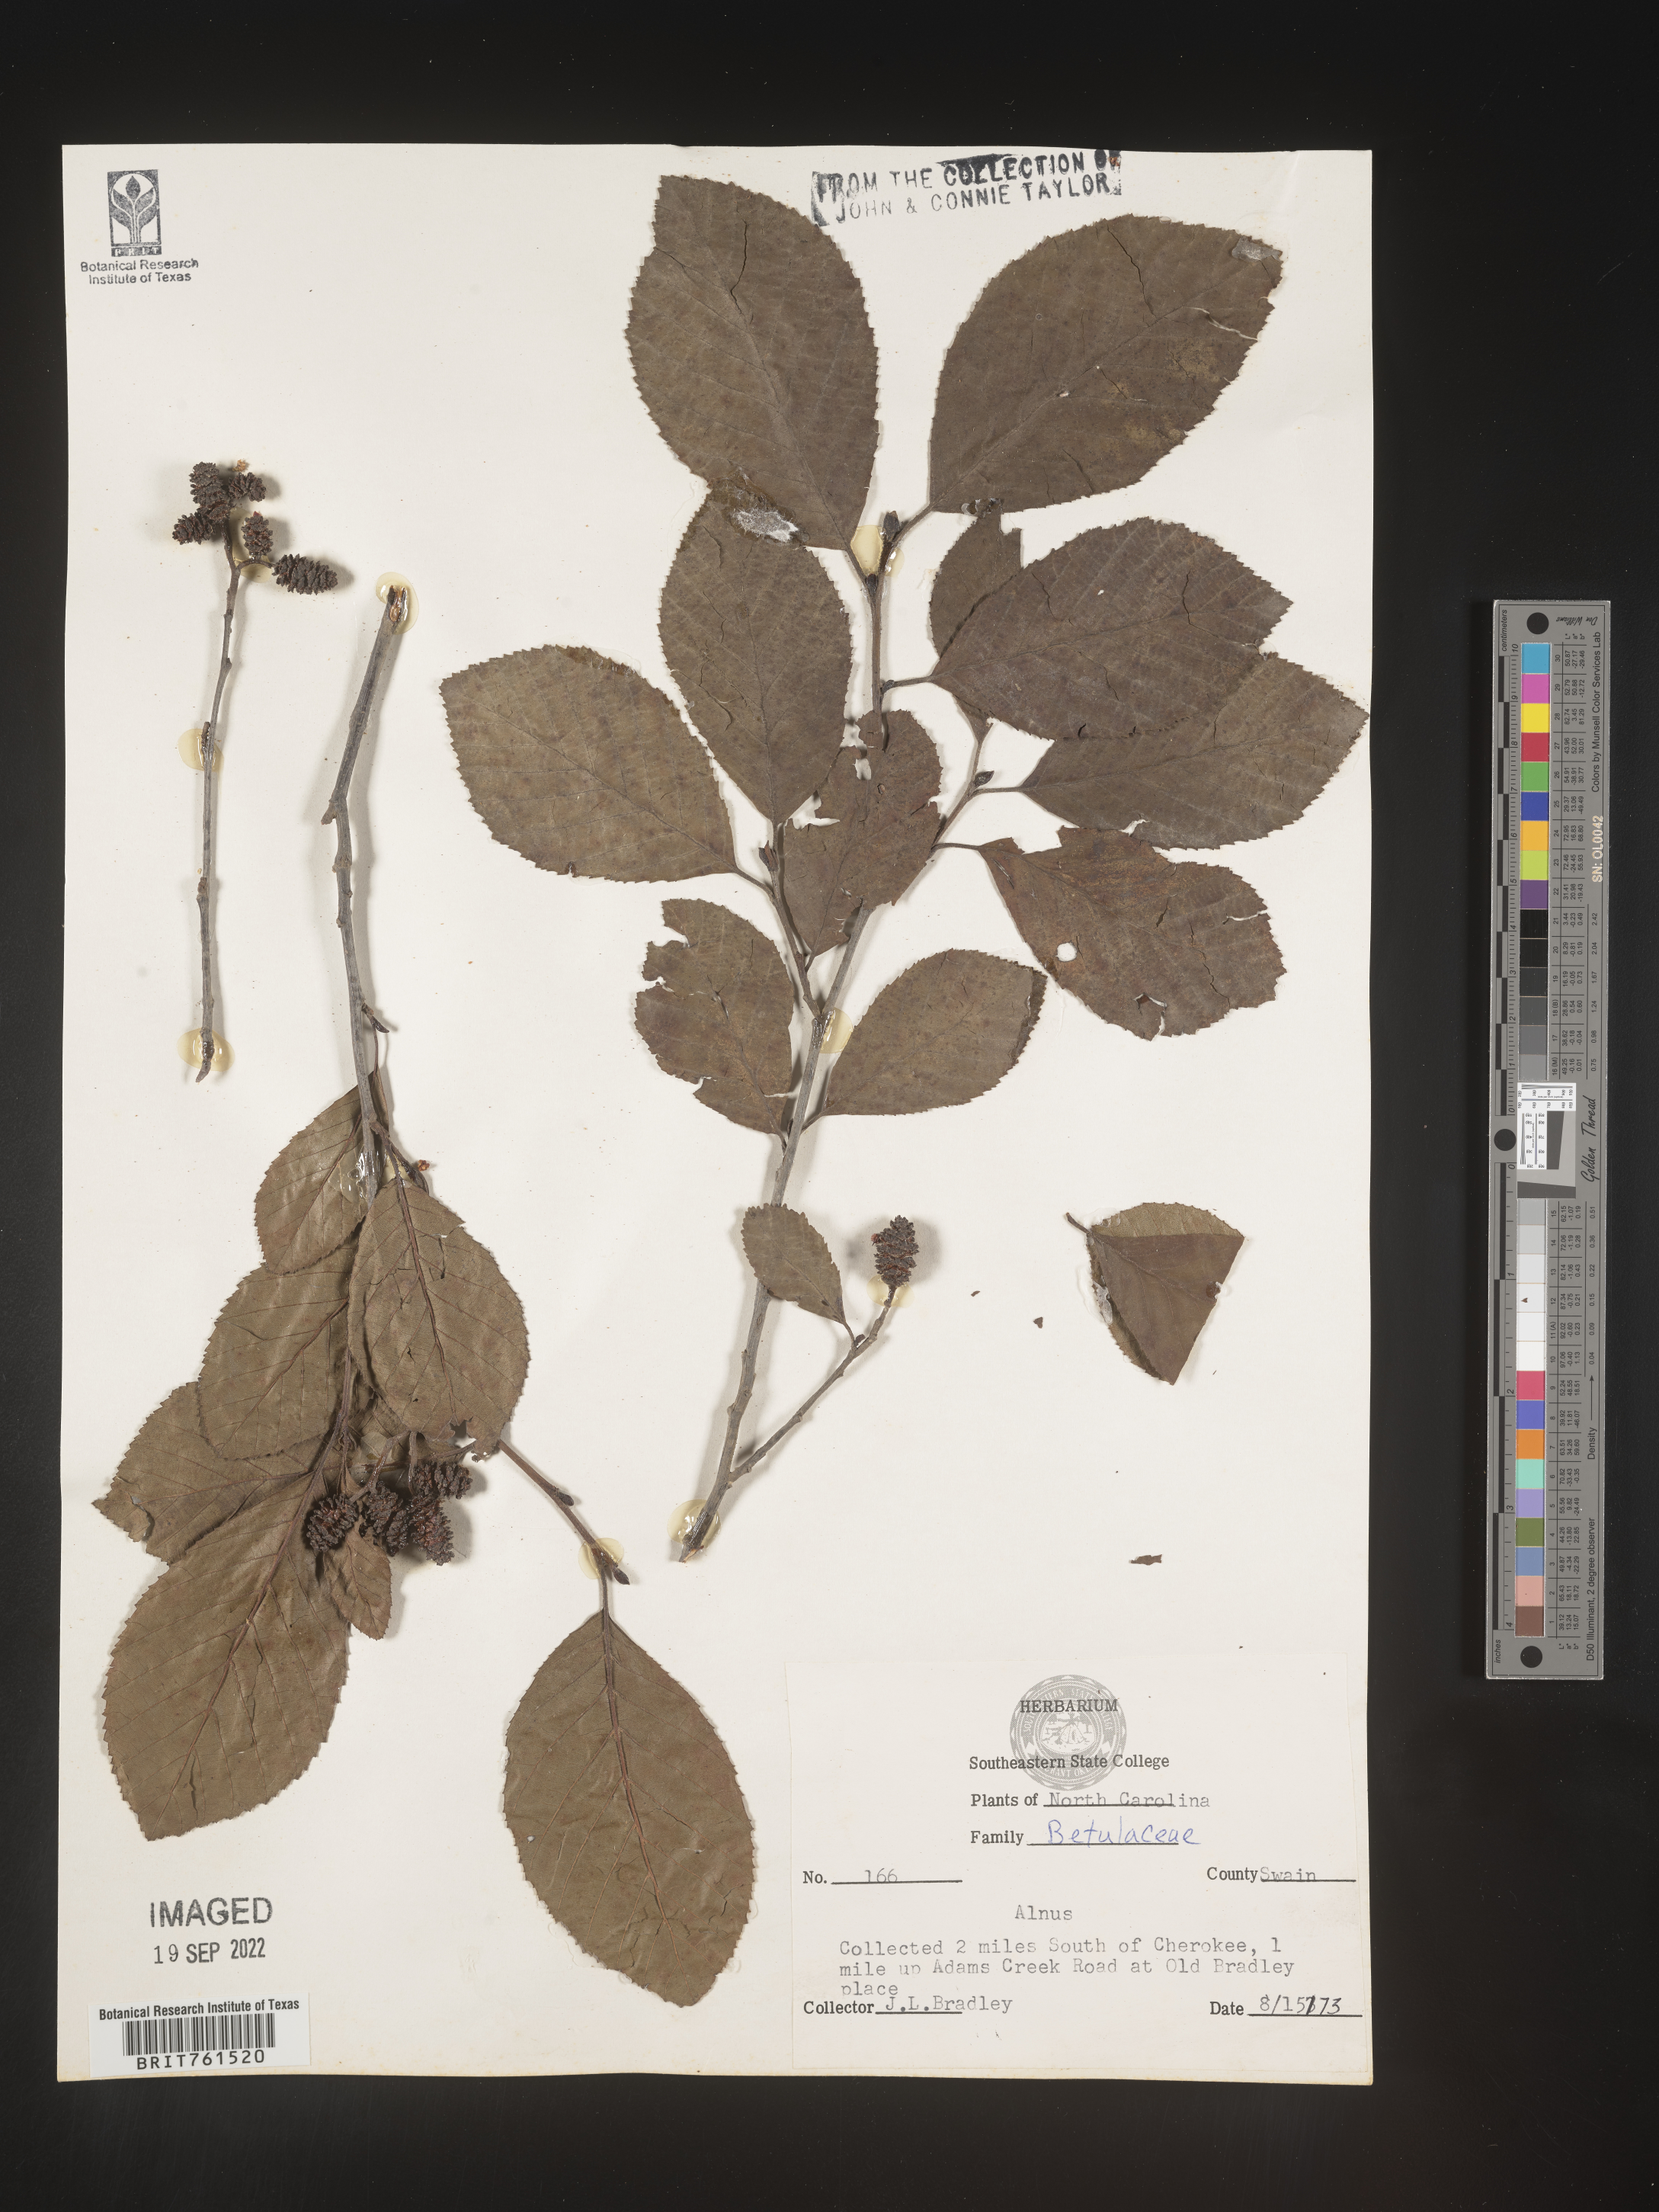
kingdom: Plantae
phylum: Tracheophyta
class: Magnoliopsida
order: Fagales
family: Betulaceae
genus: Alnus
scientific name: Alnus
